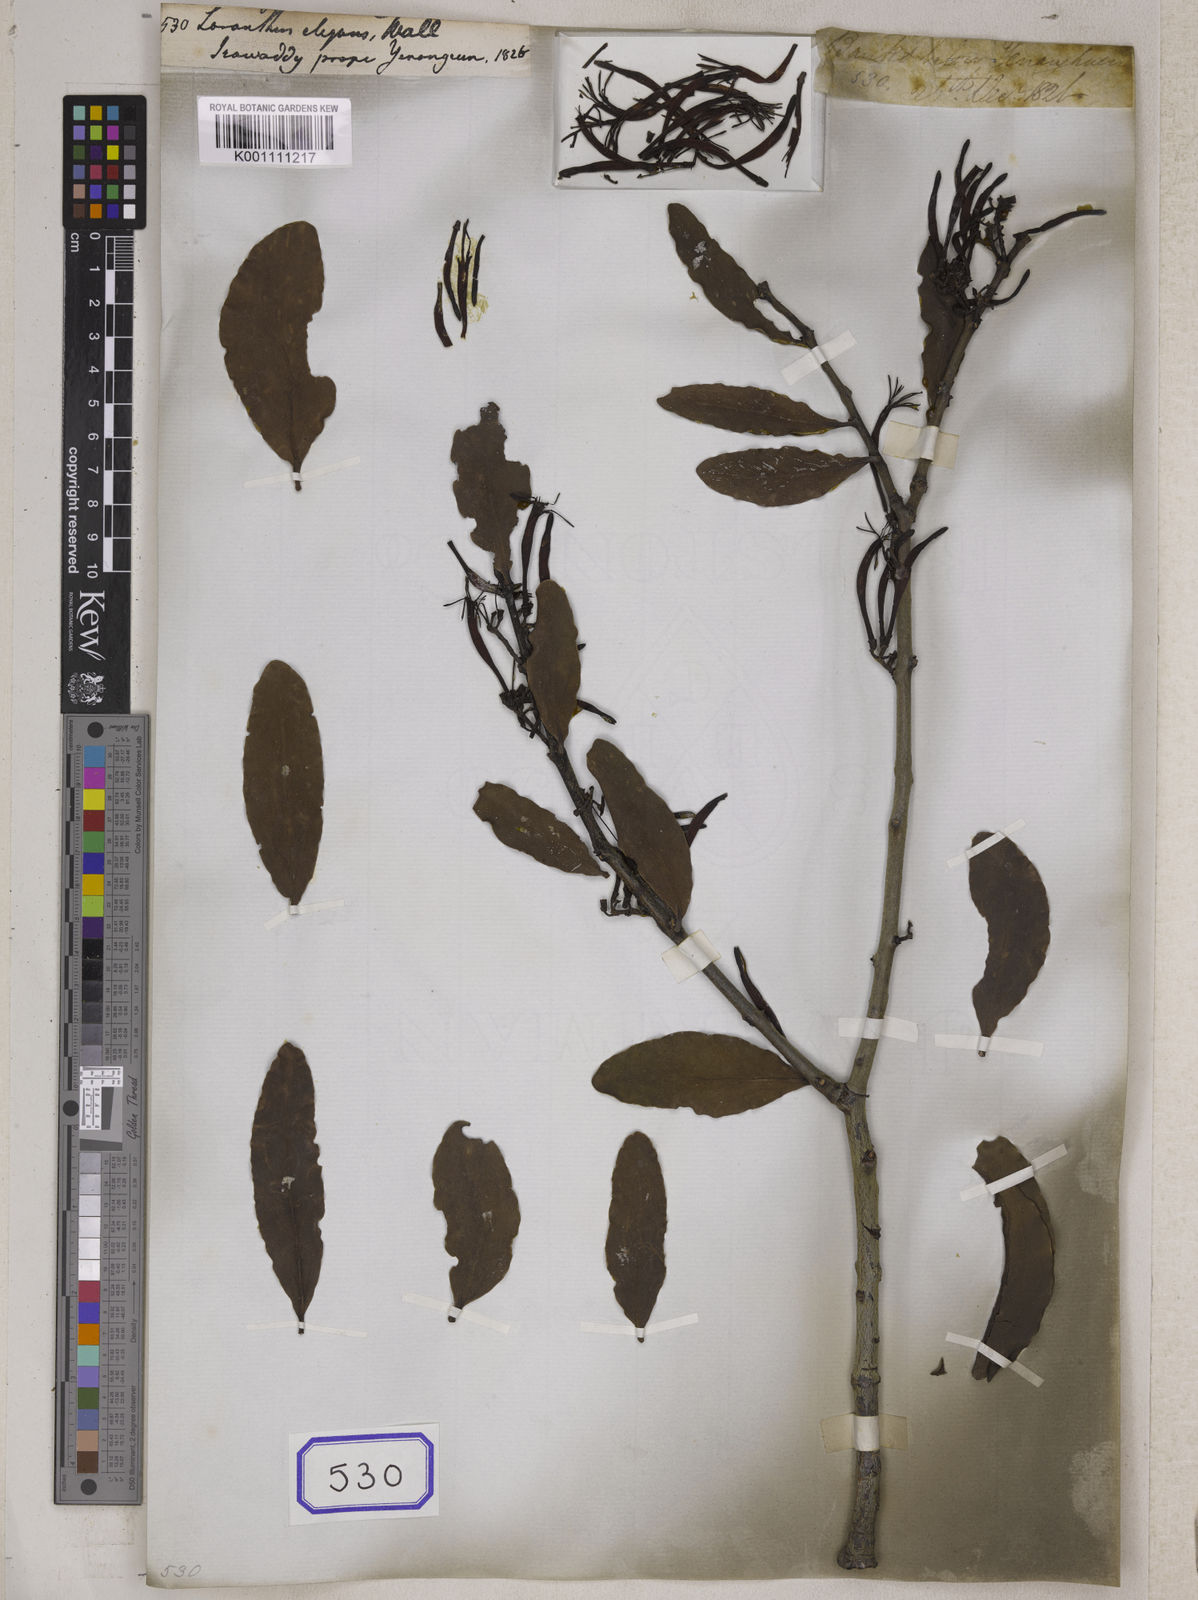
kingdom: Plantae
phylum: Tracheophyta
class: Magnoliopsida
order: Santalales
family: Loranthaceae
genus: Loranthus
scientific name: Loranthus
